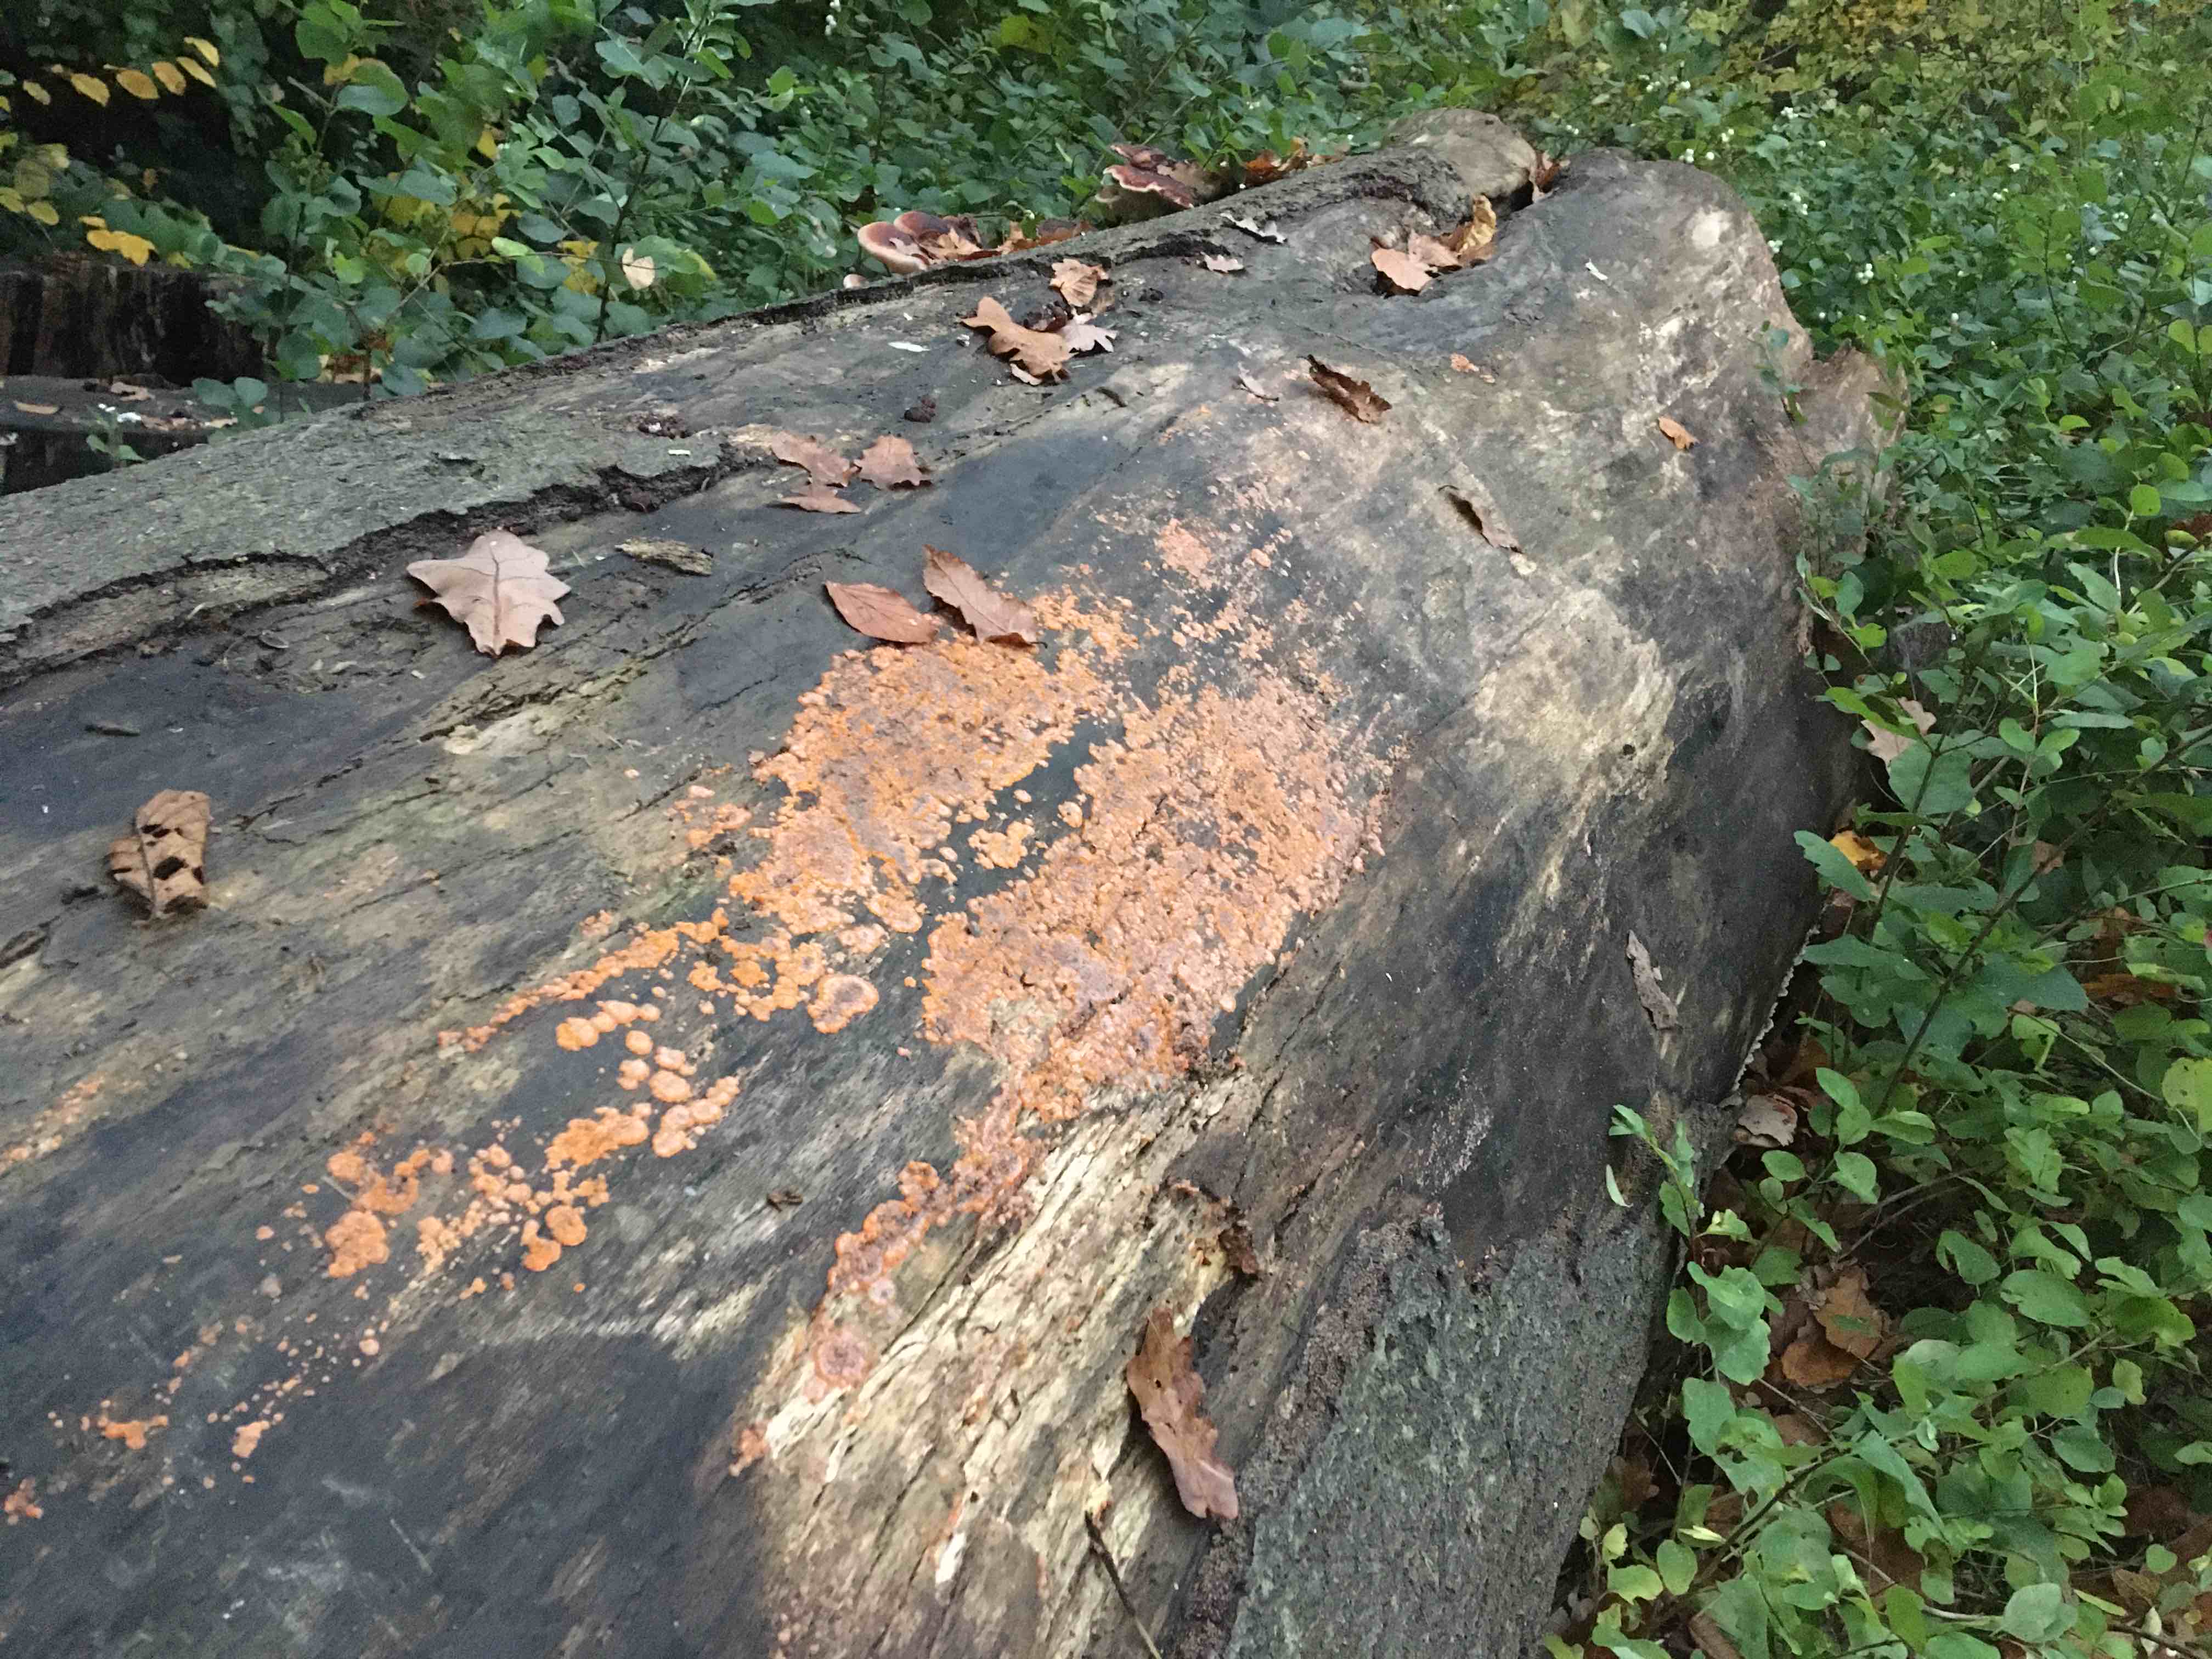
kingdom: Fungi
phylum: Basidiomycota
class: Agaricomycetes
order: Polyporales
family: Meruliaceae
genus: Phlebia
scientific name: Phlebia radiata
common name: stråle-åresvamp
